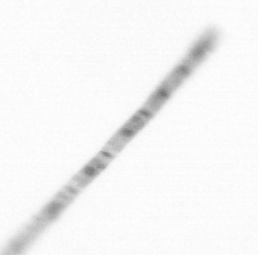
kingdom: Chromista
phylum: Ochrophyta
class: Bacillariophyceae
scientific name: Bacillariophyceae
